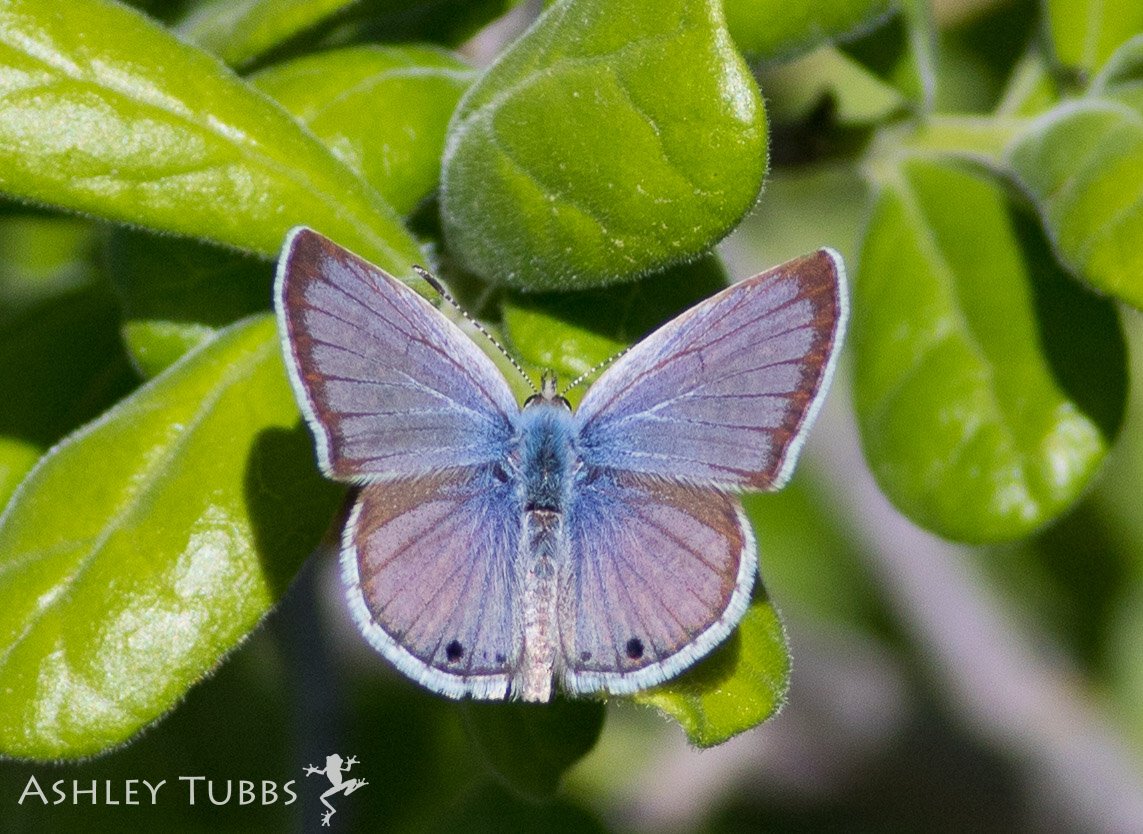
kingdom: Animalia
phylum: Arthropoda
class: Insecta
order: Lepidoptera
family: Lycaenidae
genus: Echinargus
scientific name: Echinargus isola
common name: Reakirt's Blue
